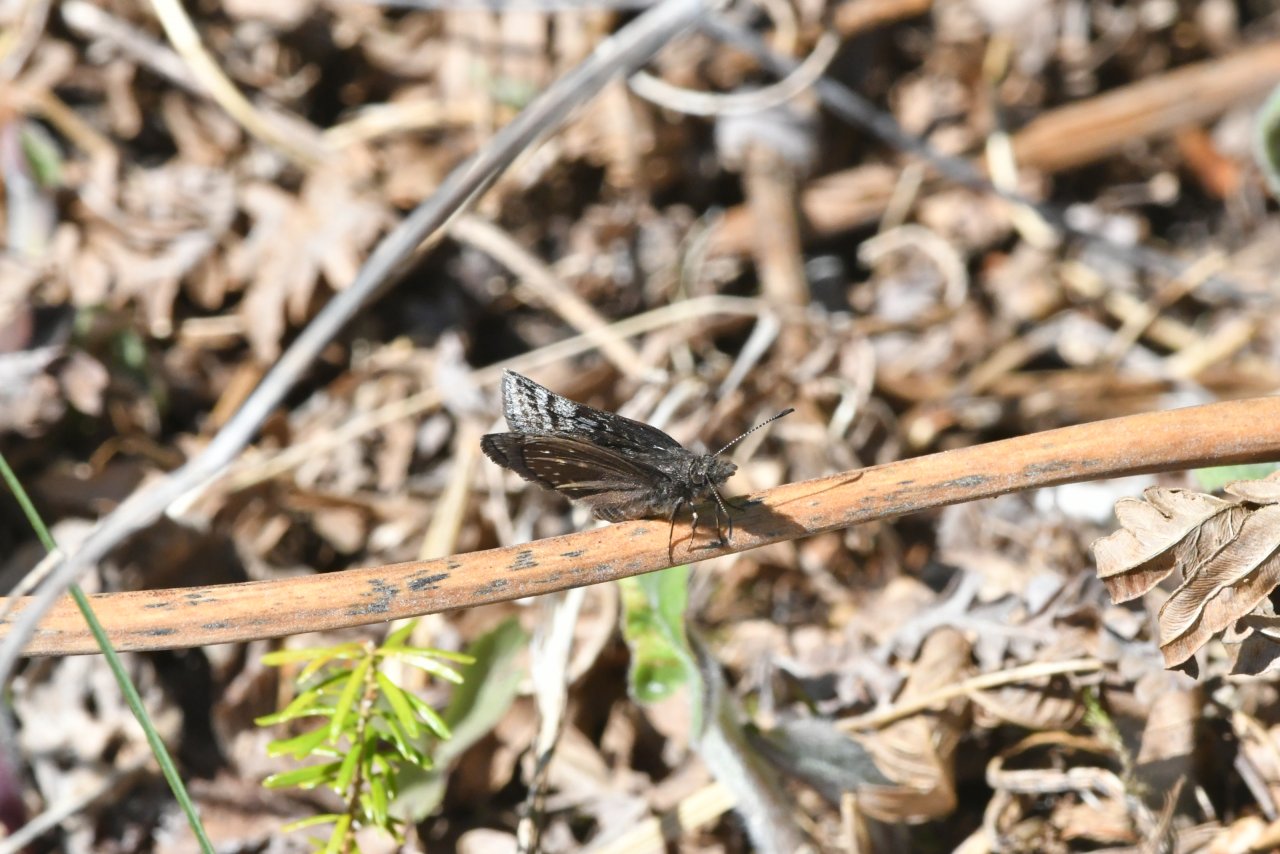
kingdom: Animalia
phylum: Arthropoda
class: Insecta
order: Lepidoptera
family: Hesperiidae
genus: Erynnis
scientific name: Erynnis icelus
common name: Dreamy Duskywing
